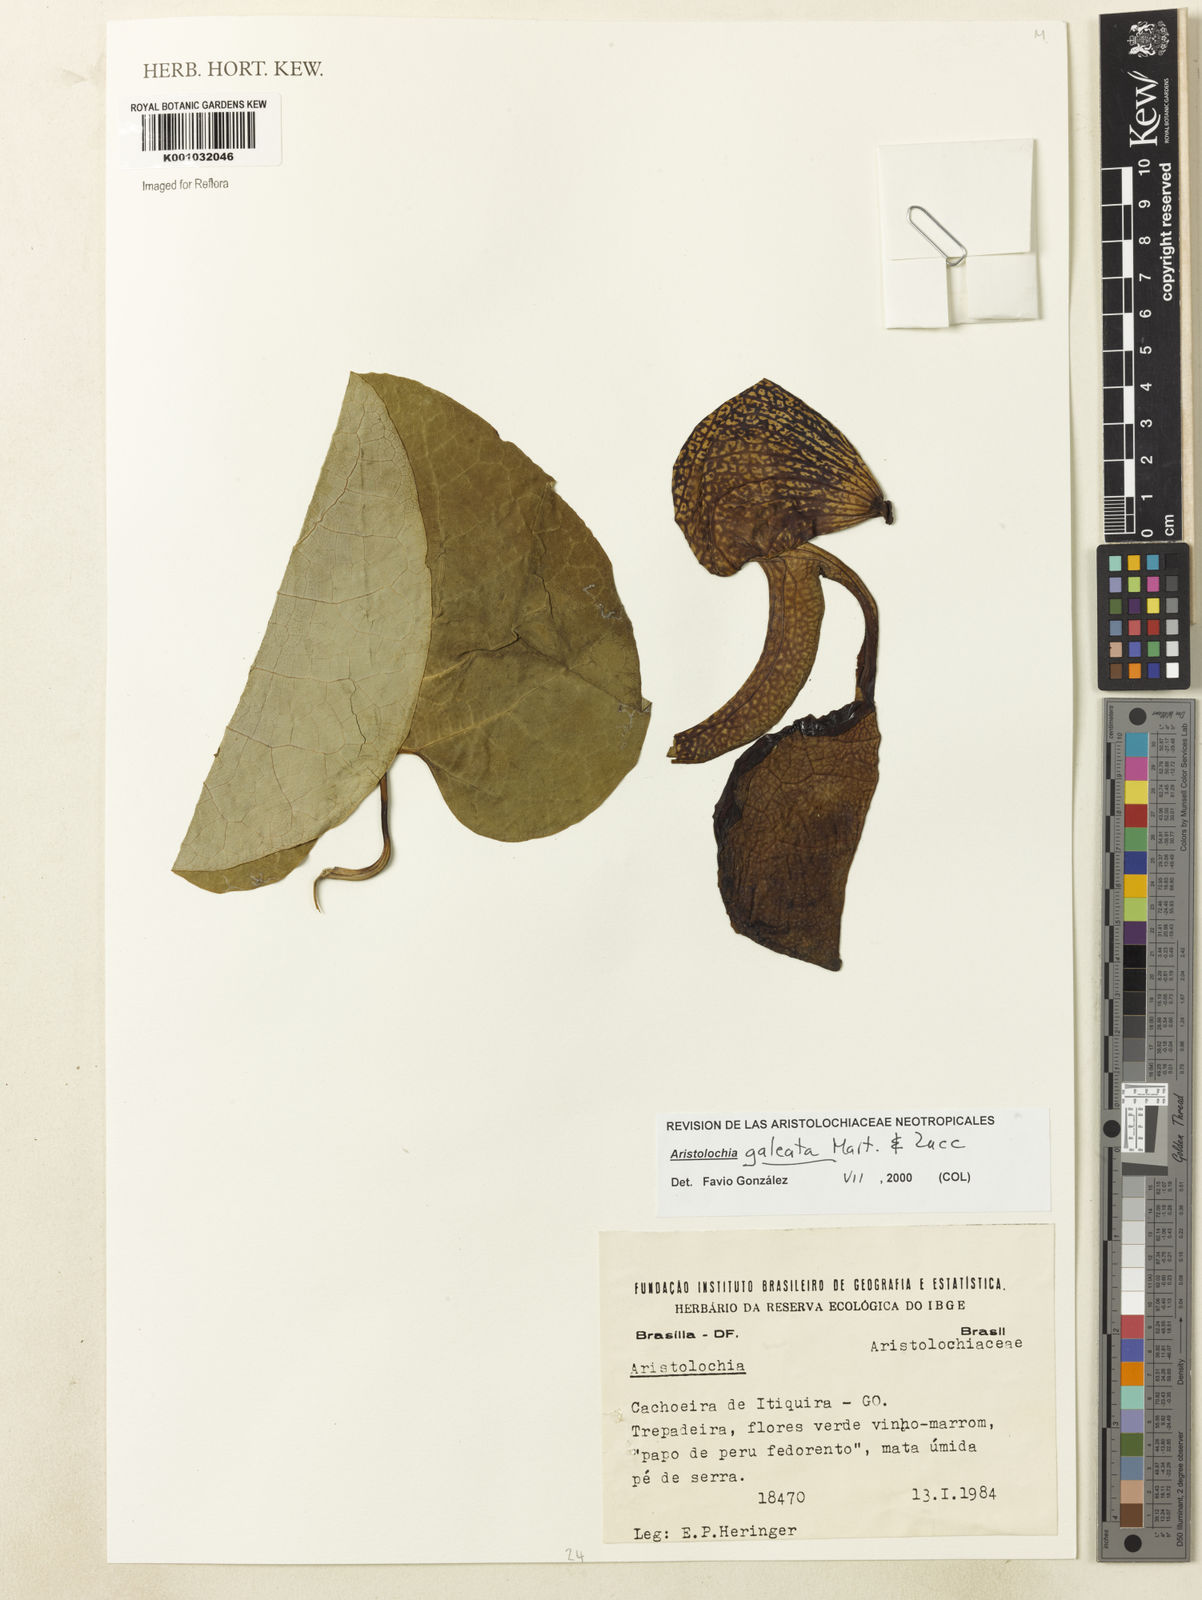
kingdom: Plantae
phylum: Tracheophyta
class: Magnoliopsida
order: Piperales
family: Aristolochiaceae
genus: Aristolochia
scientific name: Aristolochia
